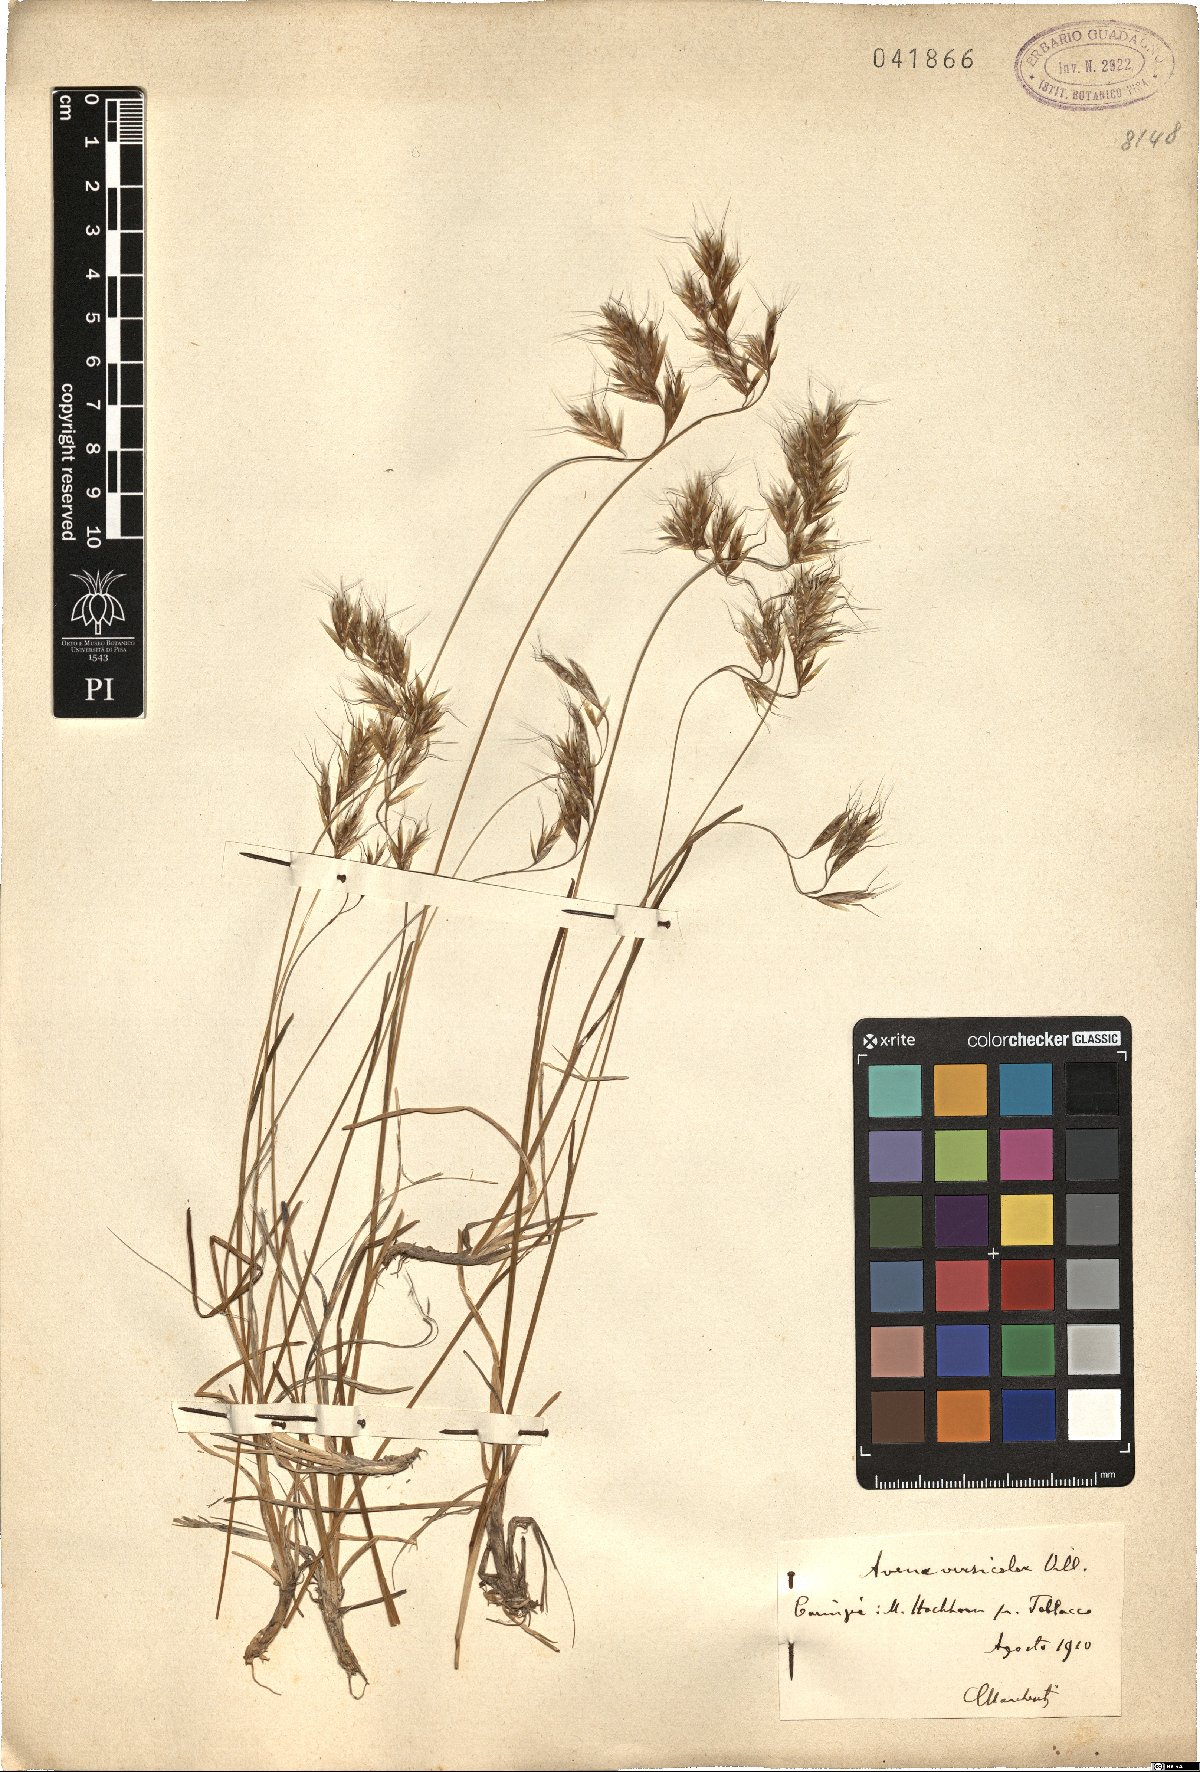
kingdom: Plantae
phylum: Tracheophyta
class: Liliopsida
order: Poales
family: Poaceae
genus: Helictochloa
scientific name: Helictochloa versicolor
